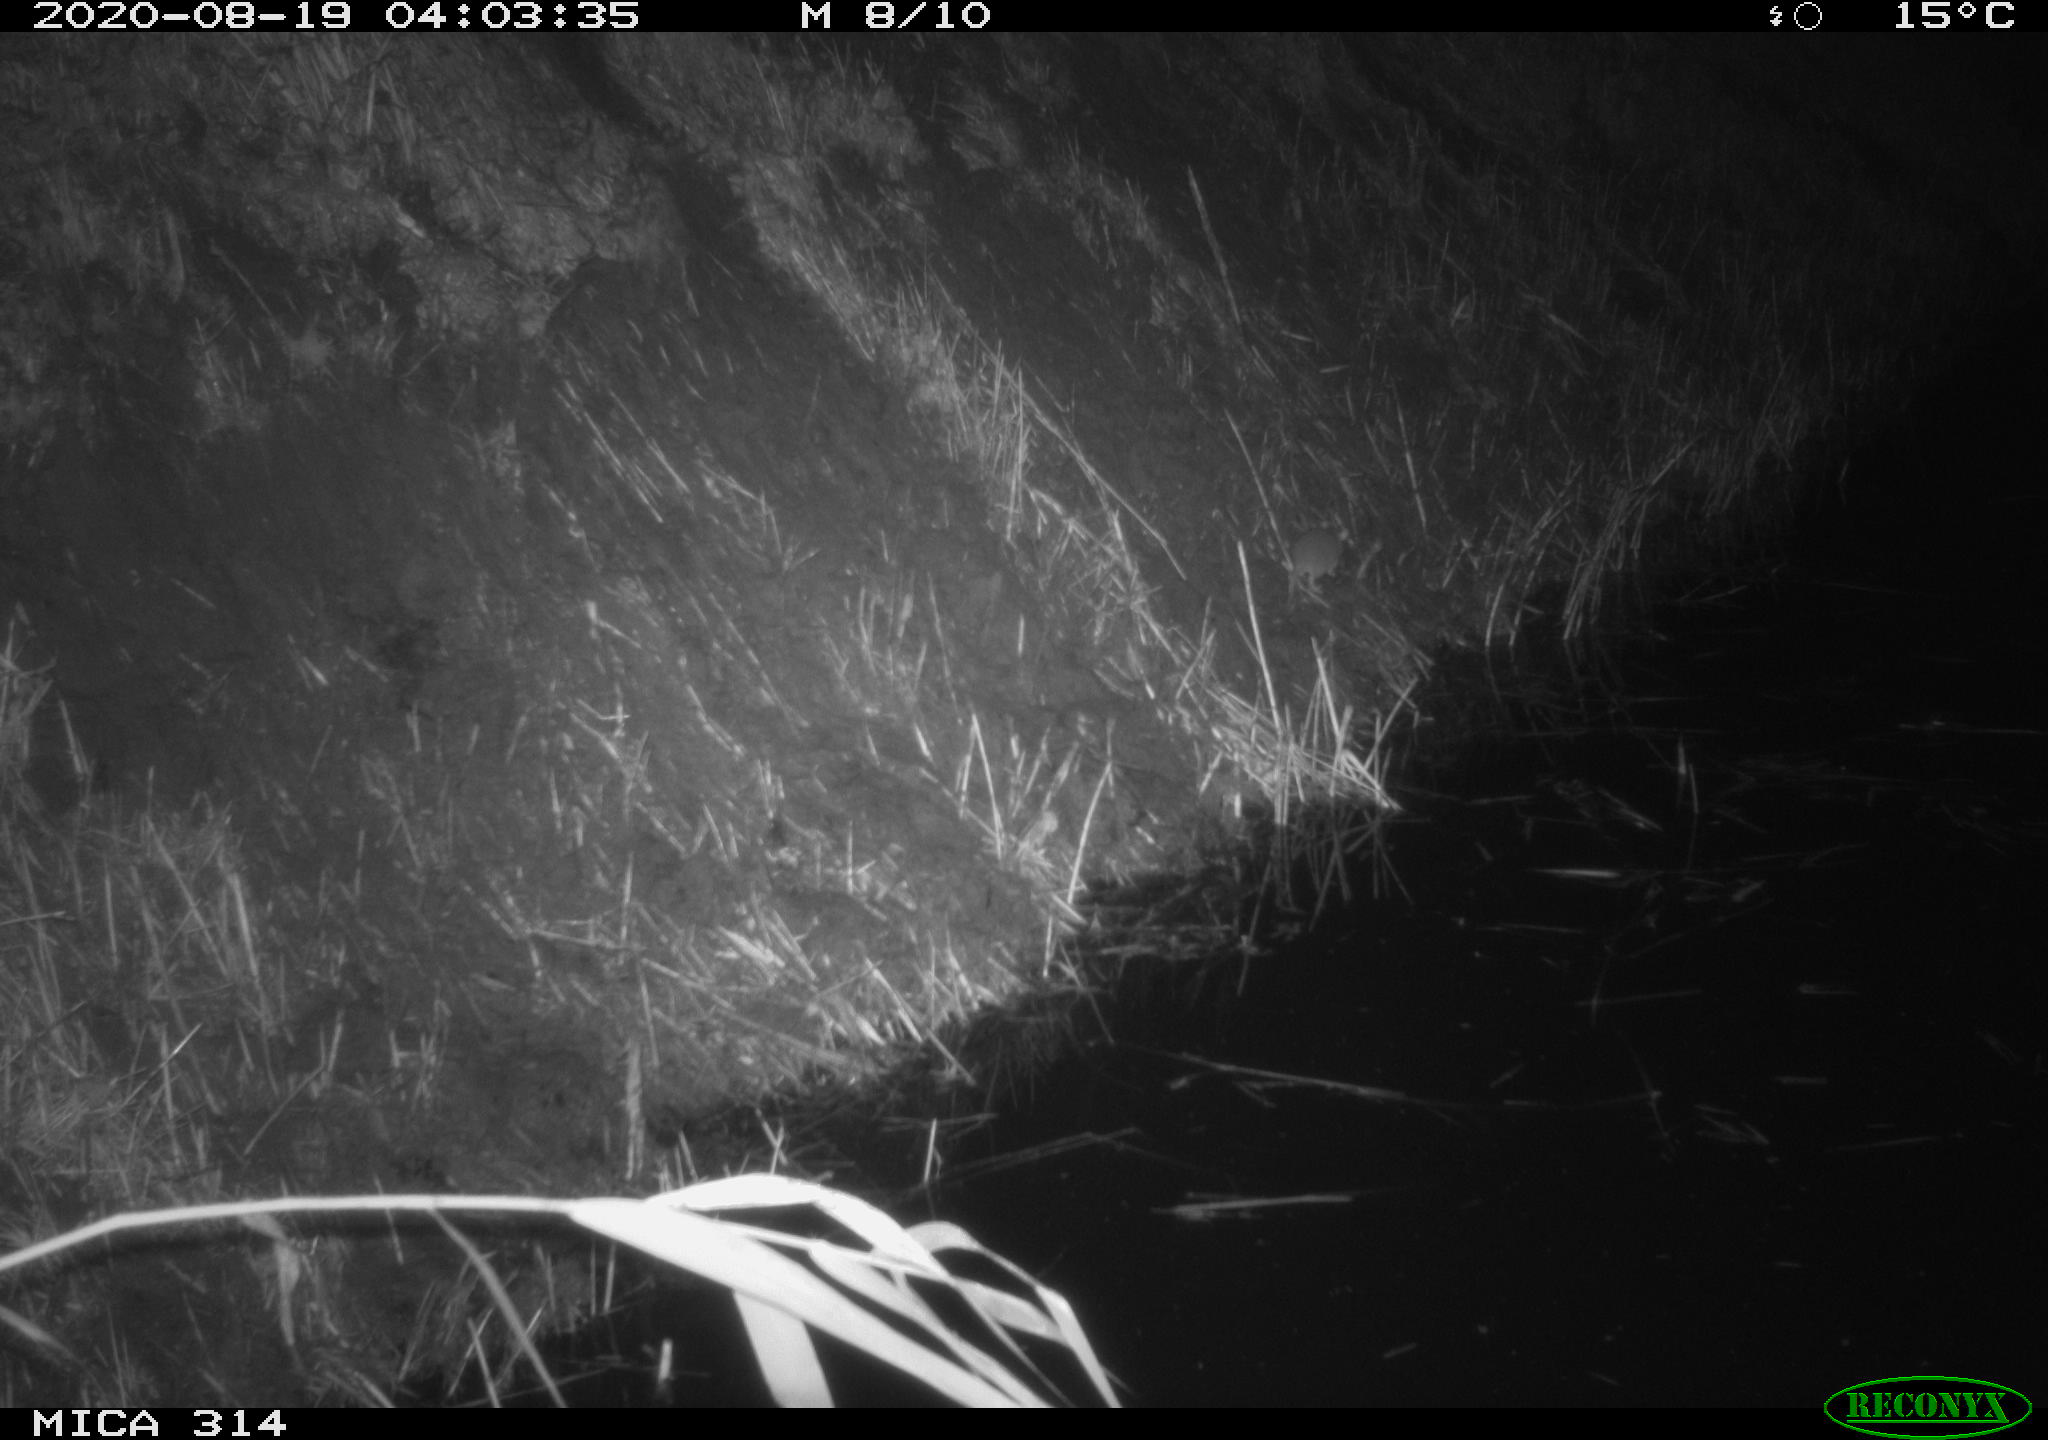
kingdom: Animalia
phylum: Chordata
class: Mammalia
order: Rodentia
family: Muridae
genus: Rattus
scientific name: Rattus norvegicus
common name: Brown rat
